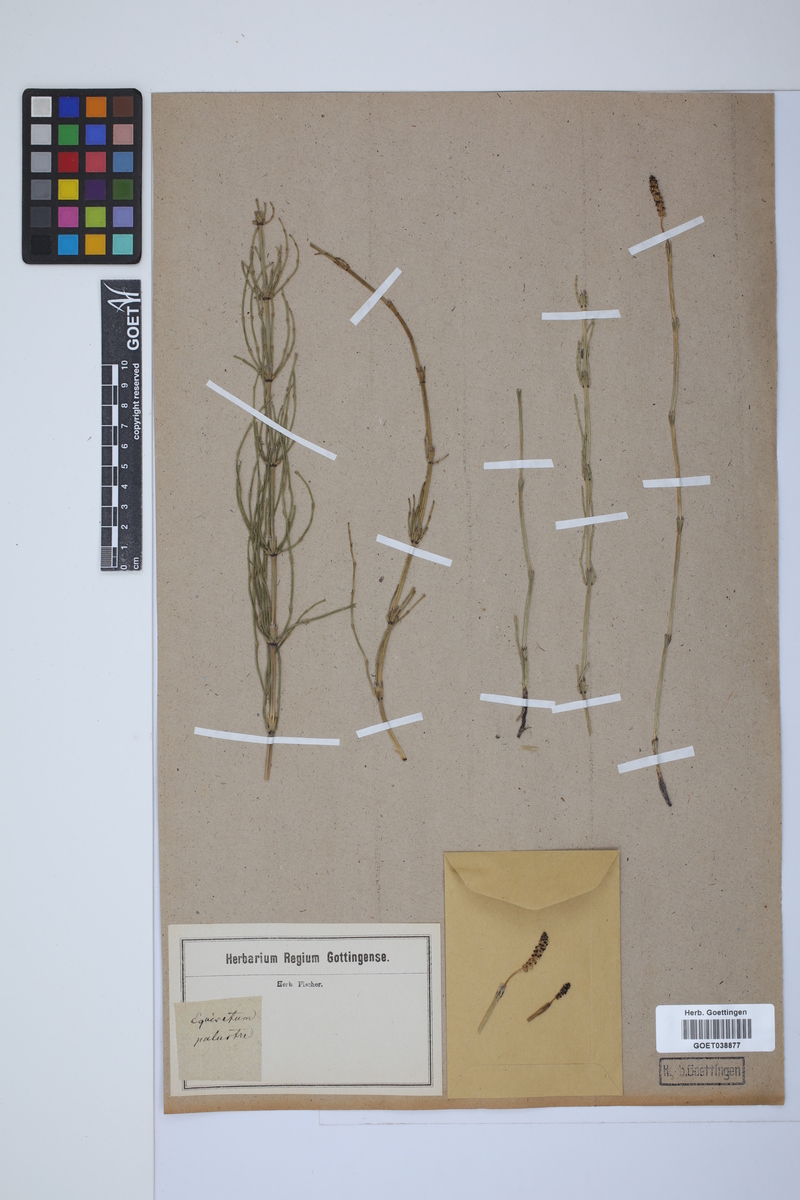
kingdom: Plantae
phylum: Tracheophyta
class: Polypodiopsida
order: Equisetales
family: Equisetaceae
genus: Equisetum
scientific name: Equisetum palustre
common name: Marsh horsetail
